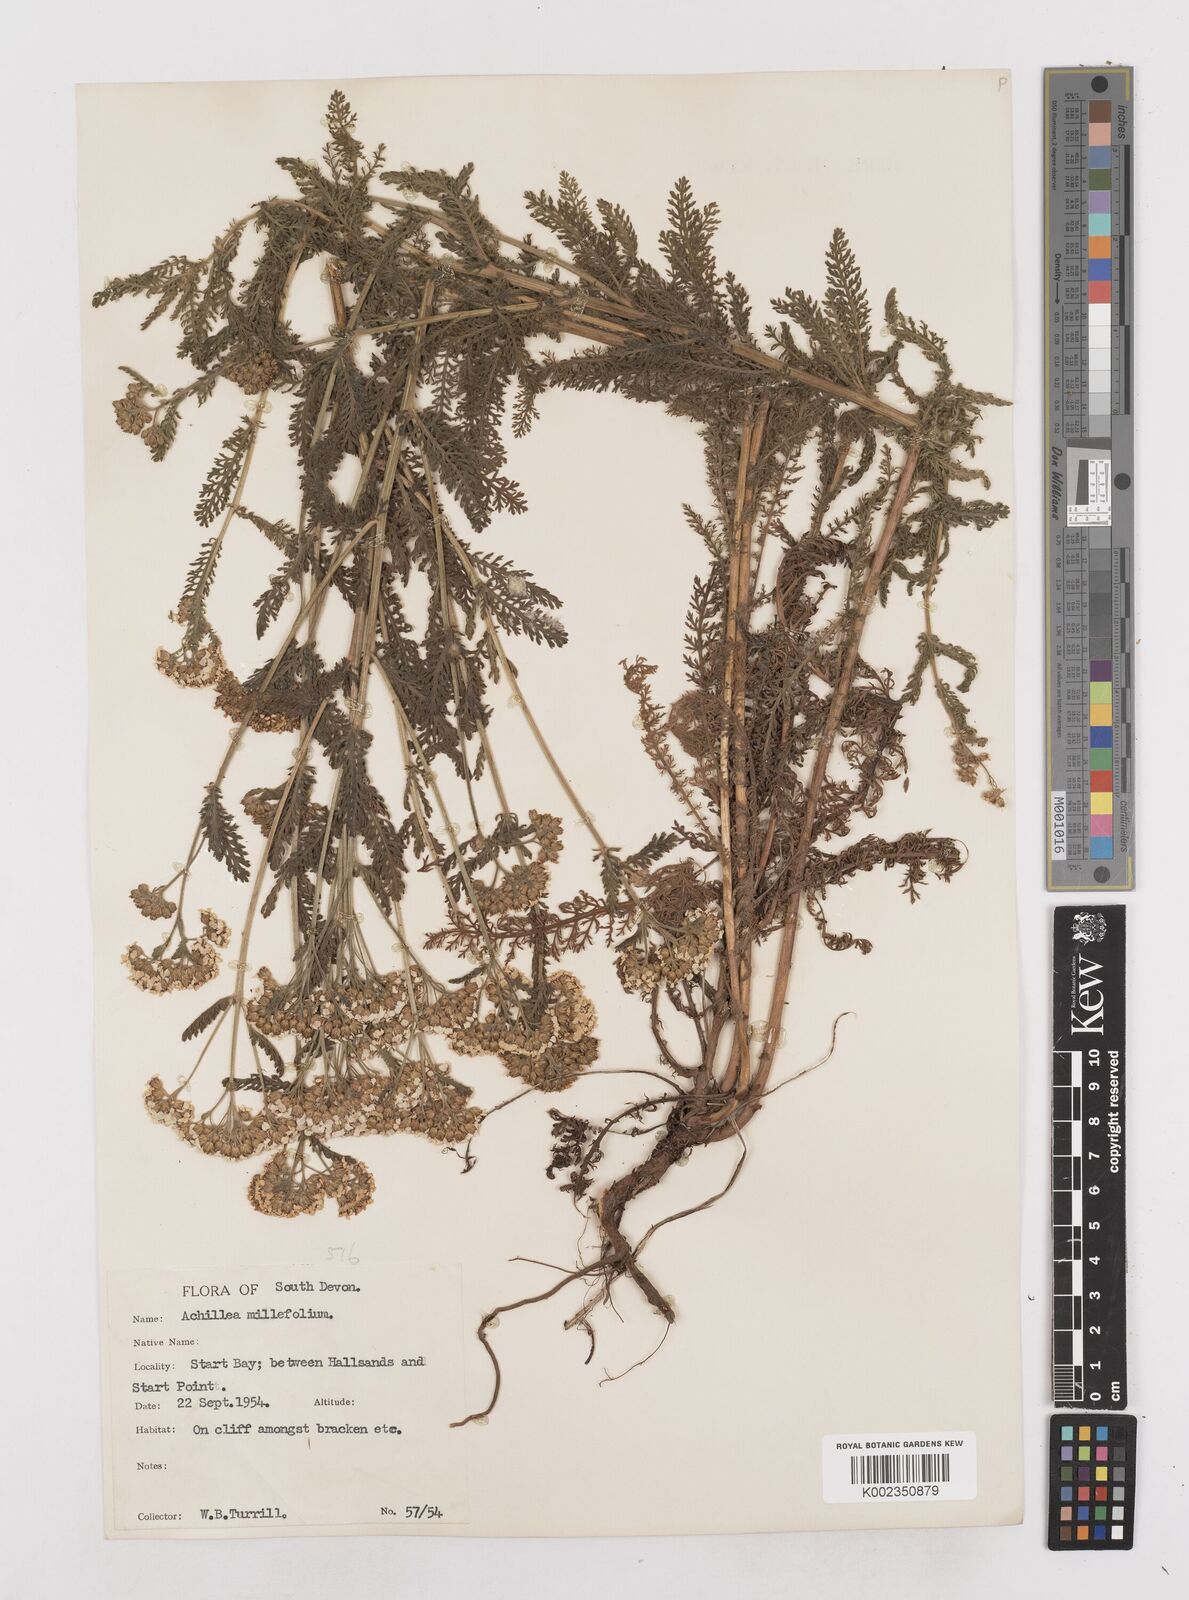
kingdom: Plantae
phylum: Tracheophyta
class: Magnoliopsida
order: Asterales
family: Asteraceae
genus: Achillea
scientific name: Achillea millefolium
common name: Yarrow
